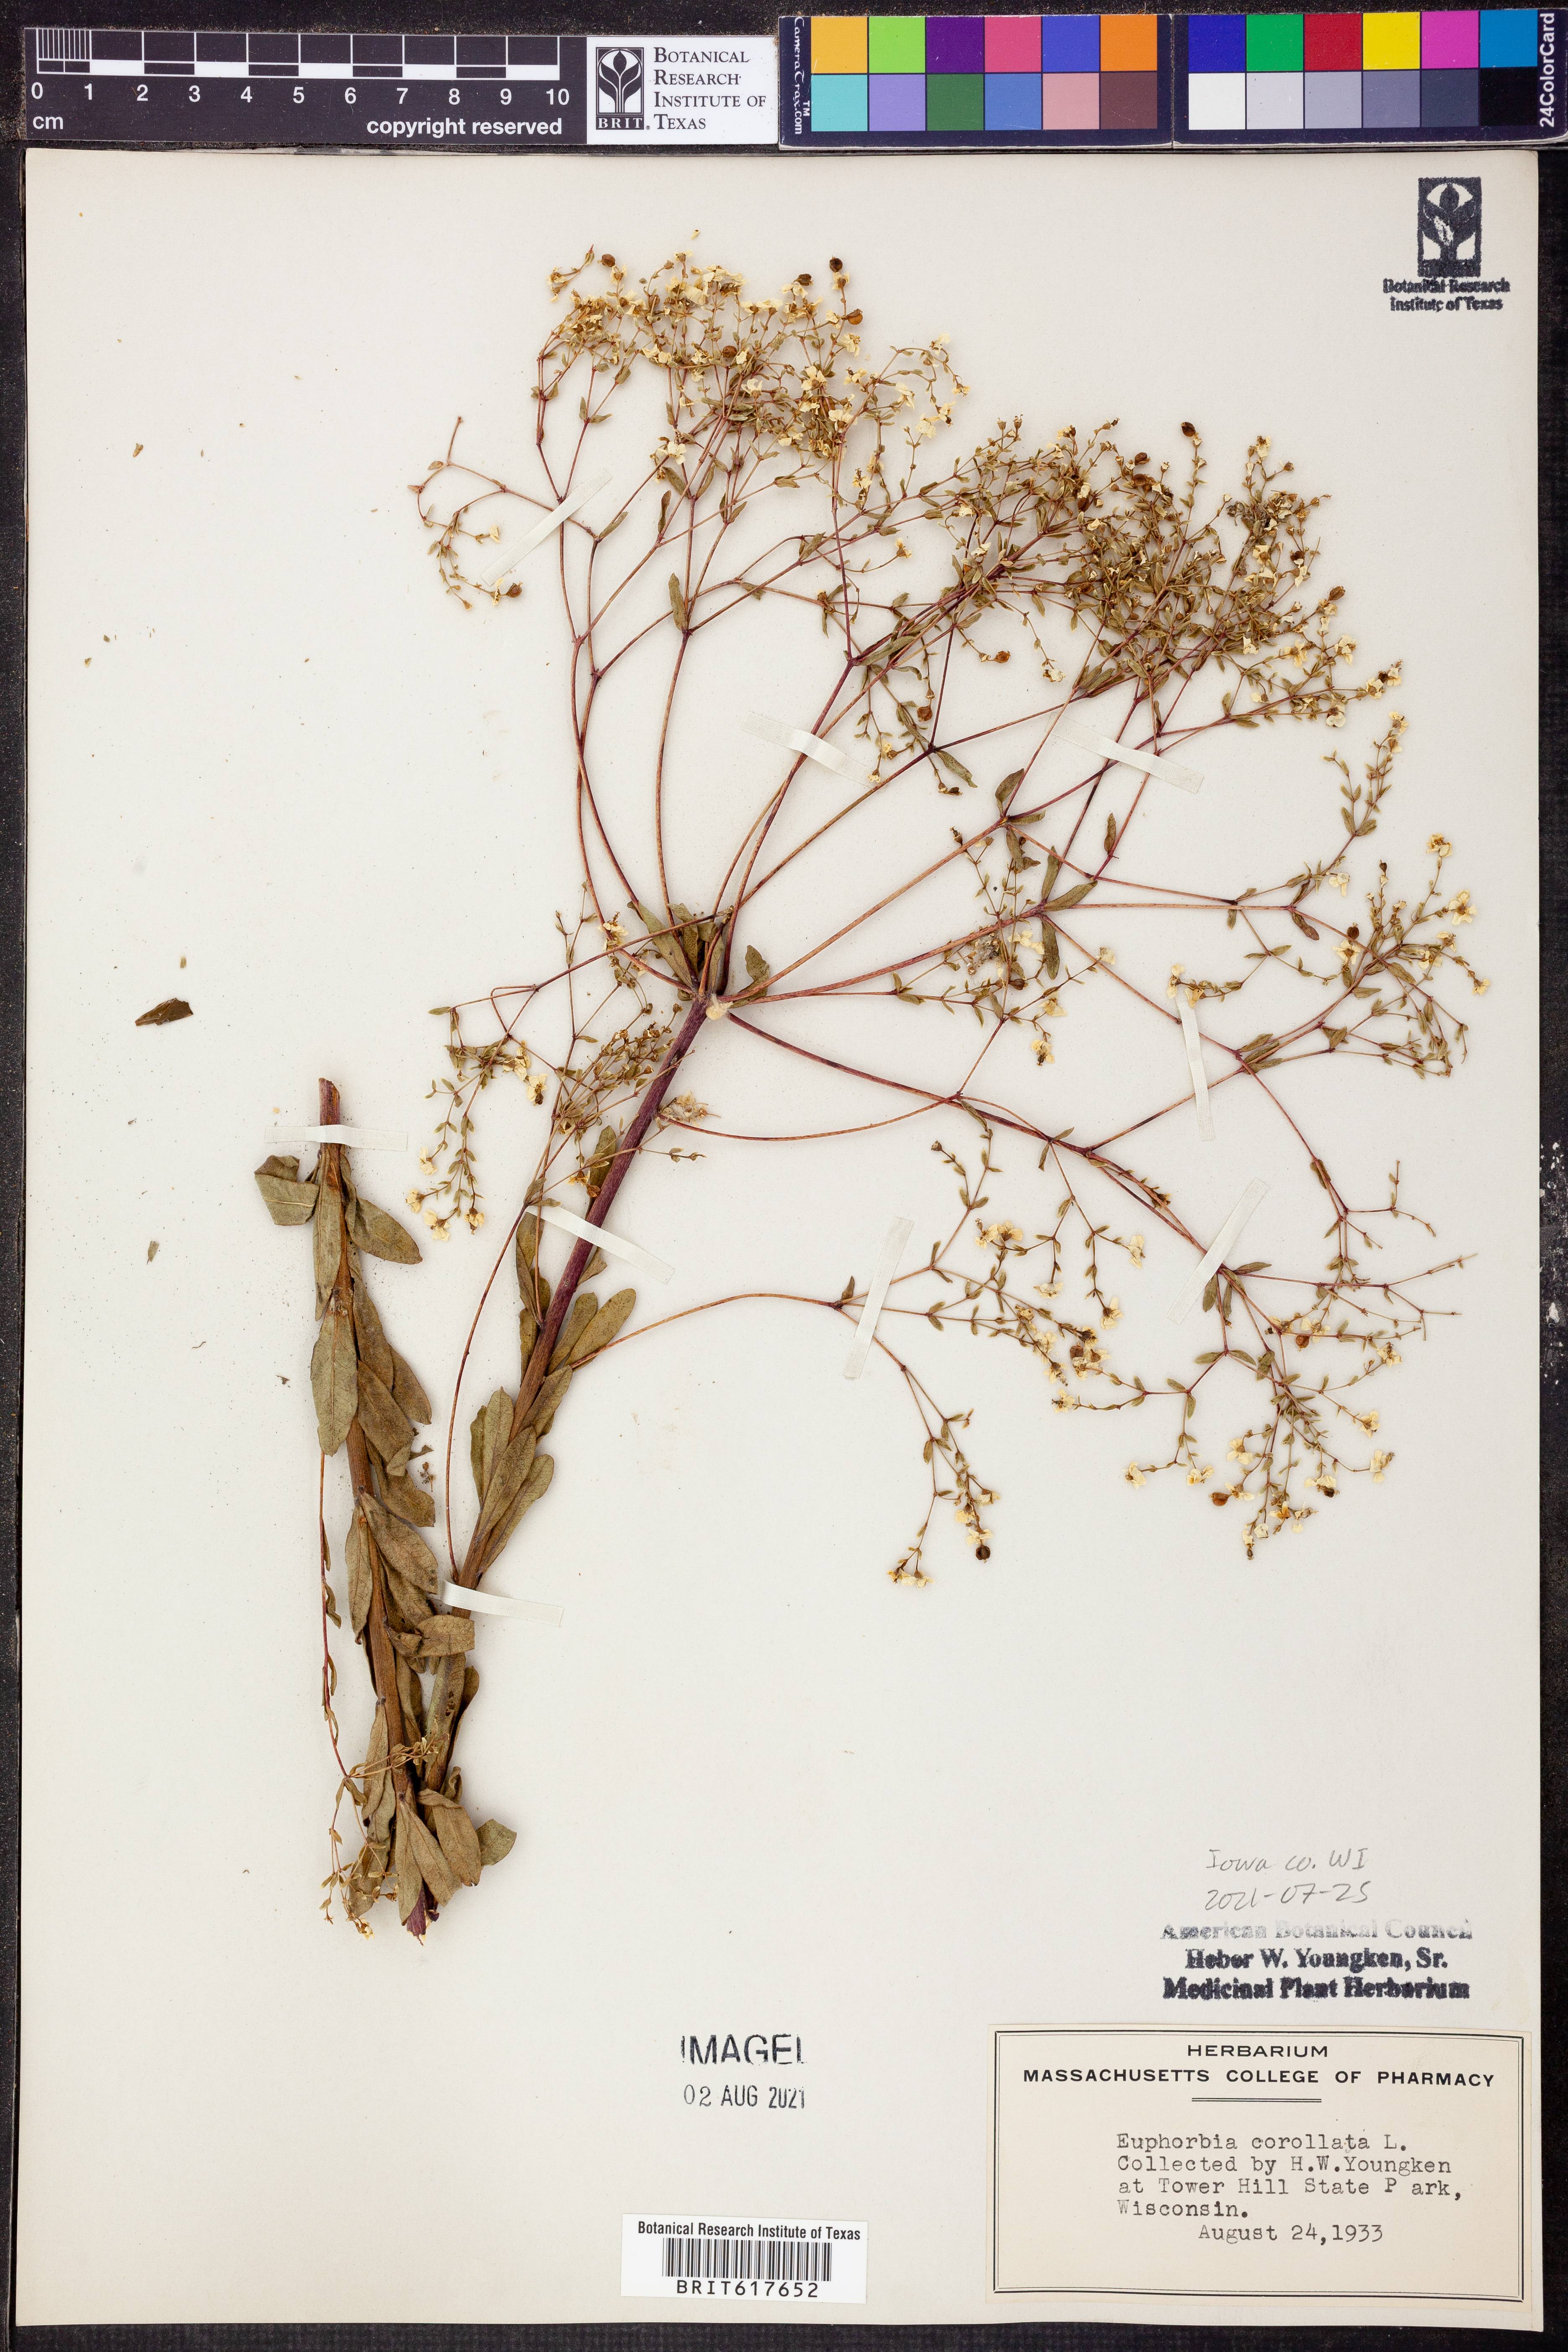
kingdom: Plantae
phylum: Tracheophyta
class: Magnoliopsida
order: Malpighiales
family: Euphorbiaceae
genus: Euphorbia
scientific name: Euphorbia corollata
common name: Flowering spurge
